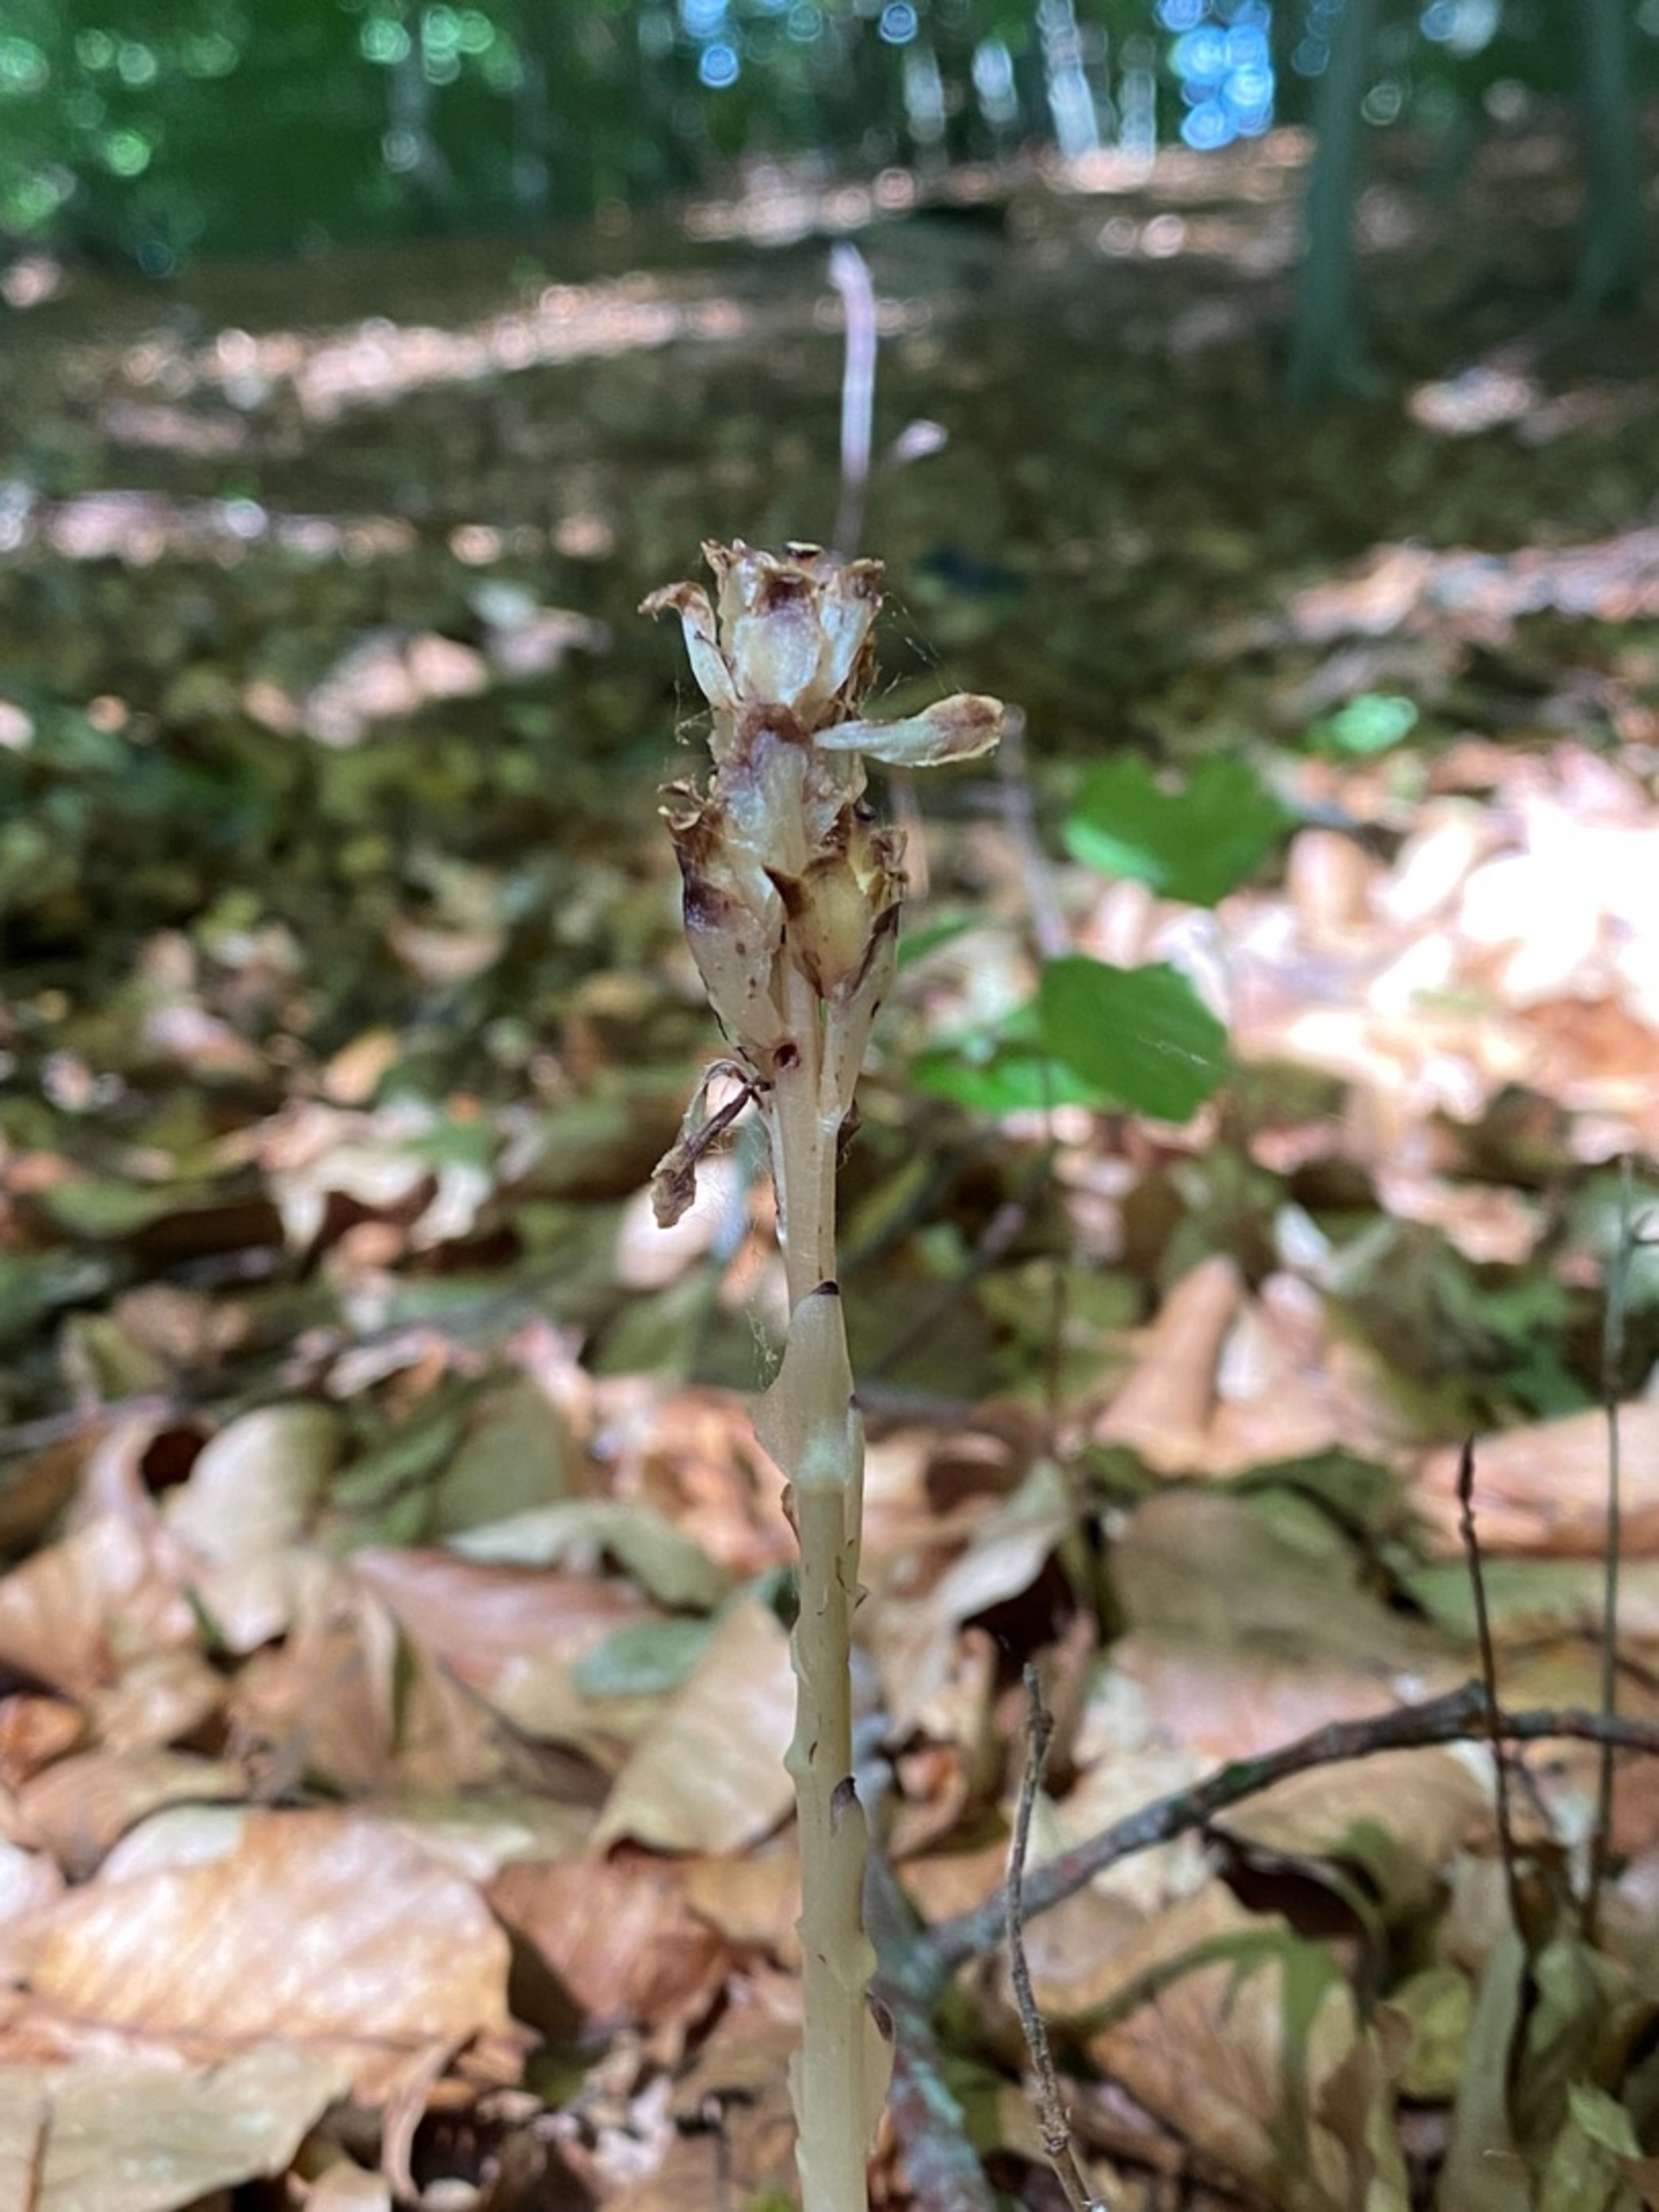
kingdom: Plantae
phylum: Tracheophyta
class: Magnoliopsida
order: Ericales
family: Ericaceae
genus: Hypopitys
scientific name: Hypopitys hypophegea
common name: Glat snylterod
